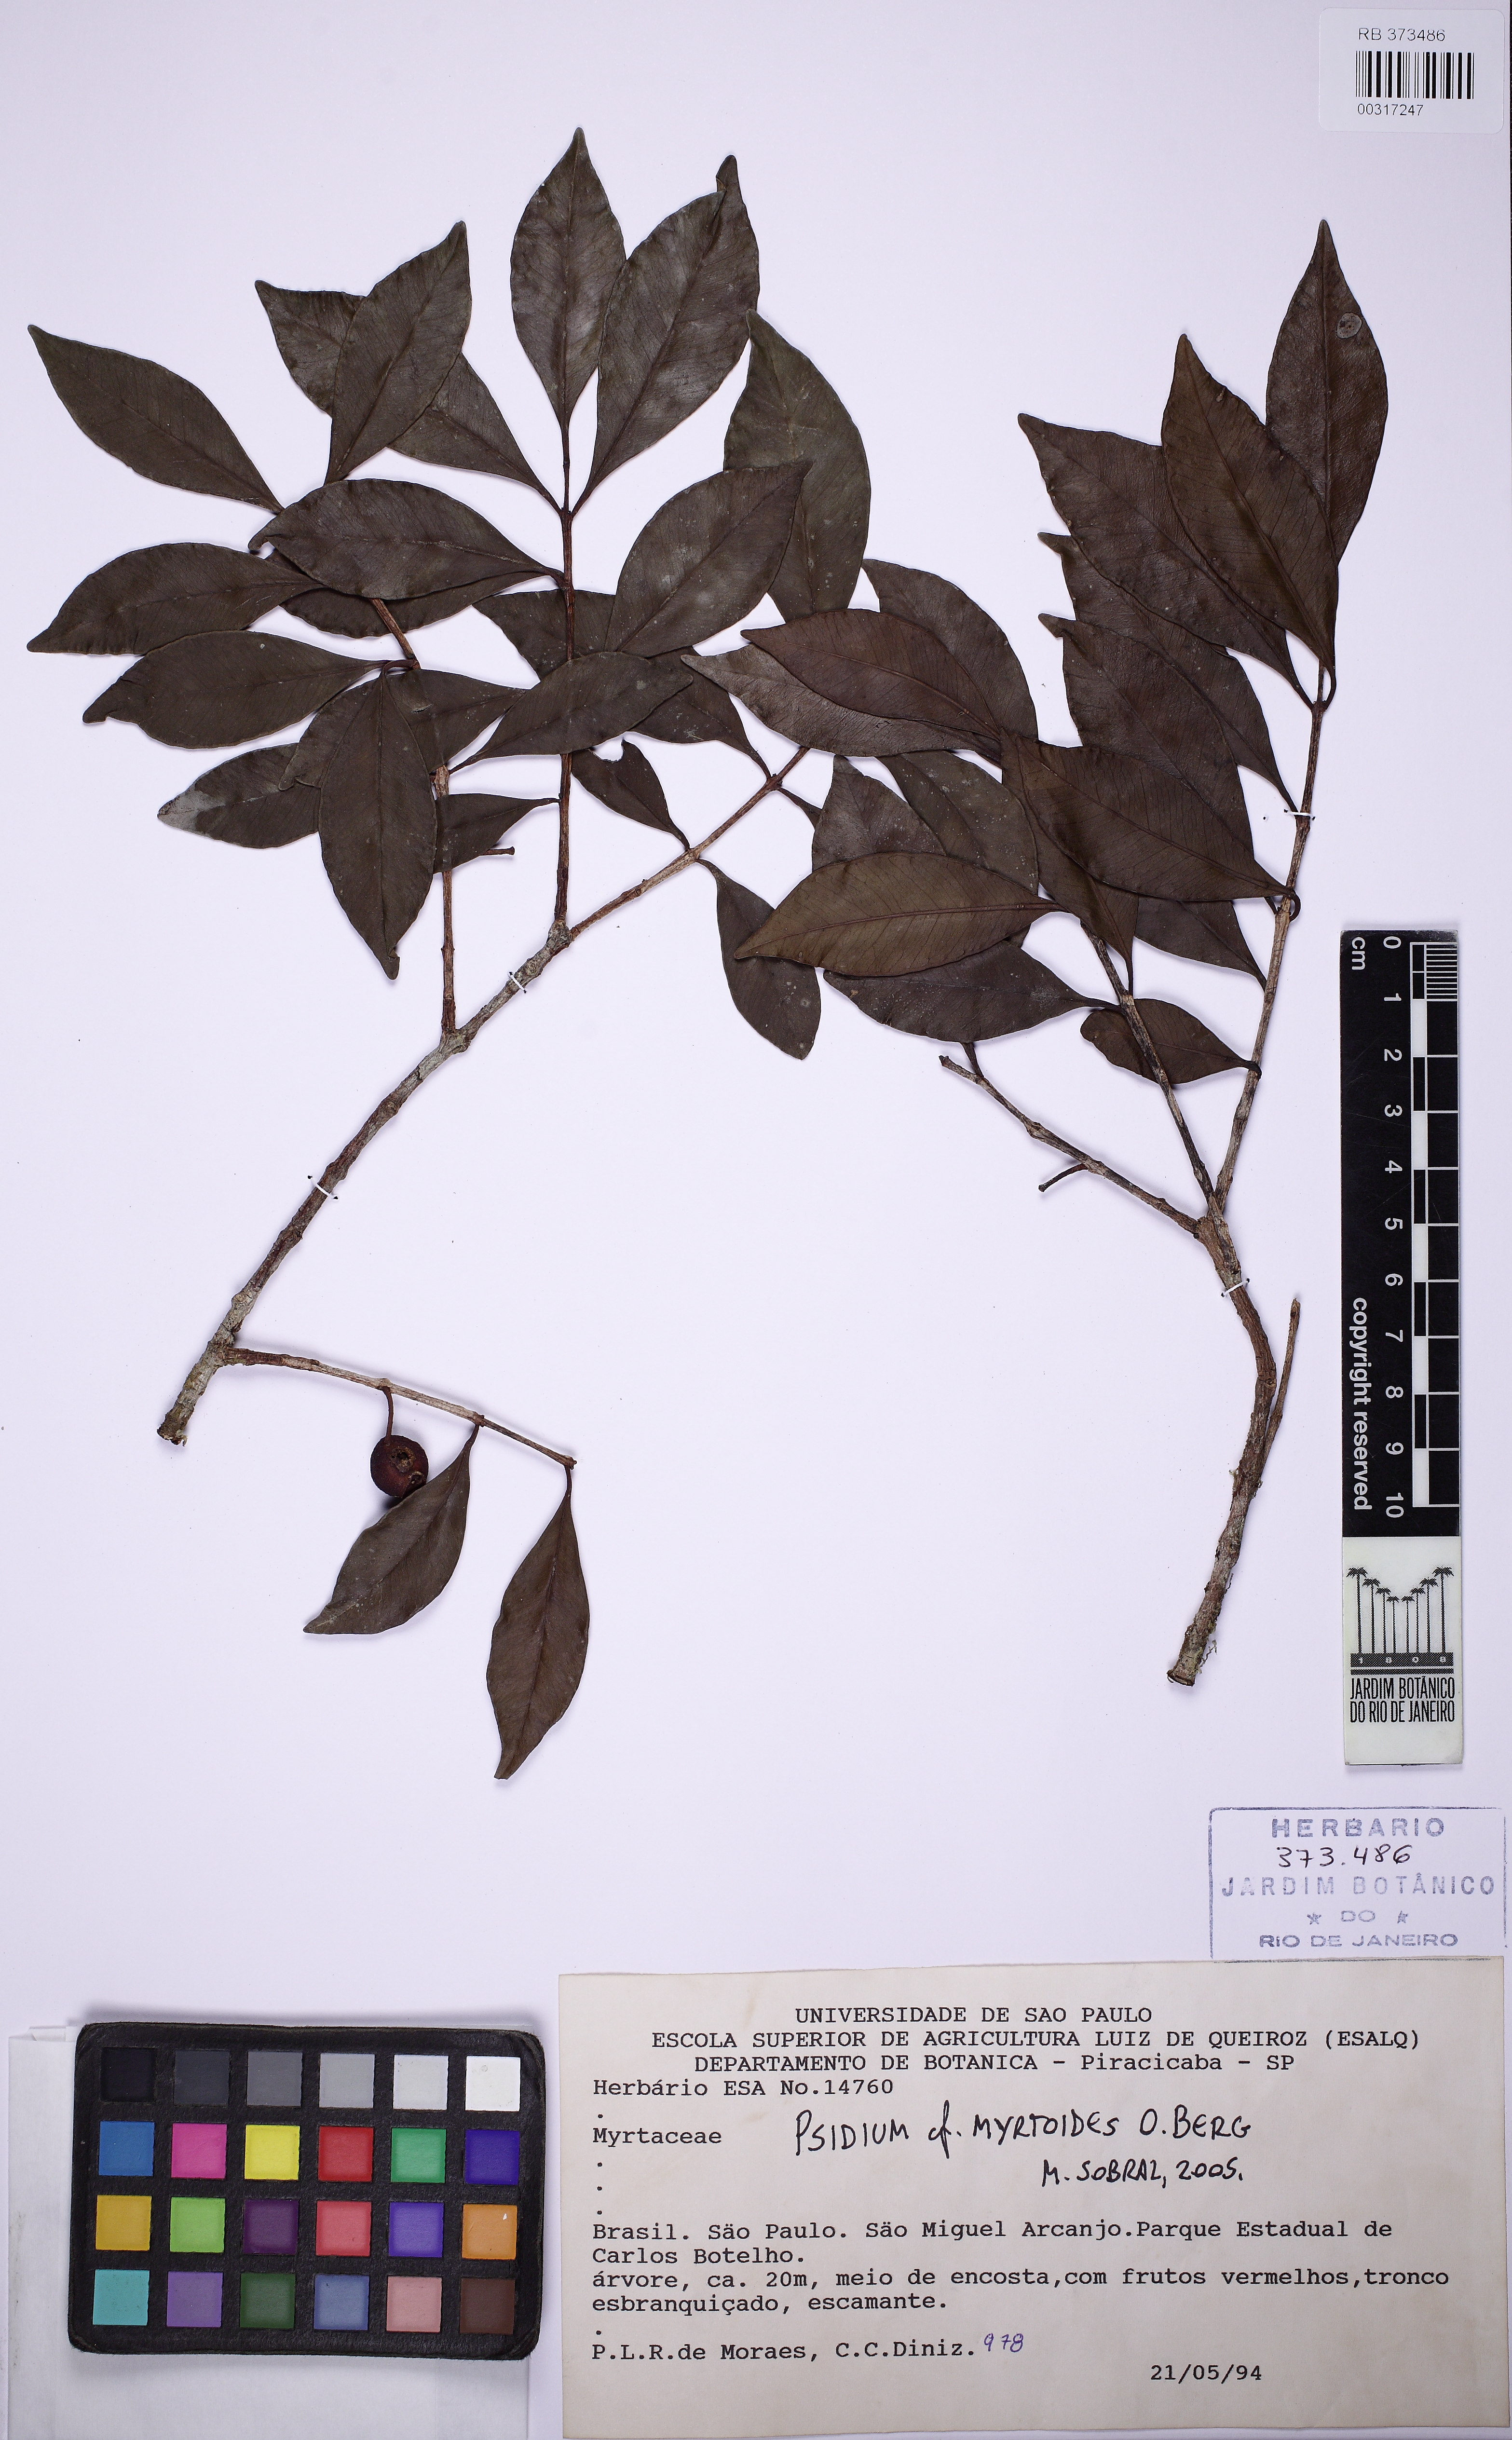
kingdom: Plantae
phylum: Tracheophyta
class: Magnoliopsida
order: Myrtales
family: Myrtaceae
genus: Psidium
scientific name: Psidium myrtoides
